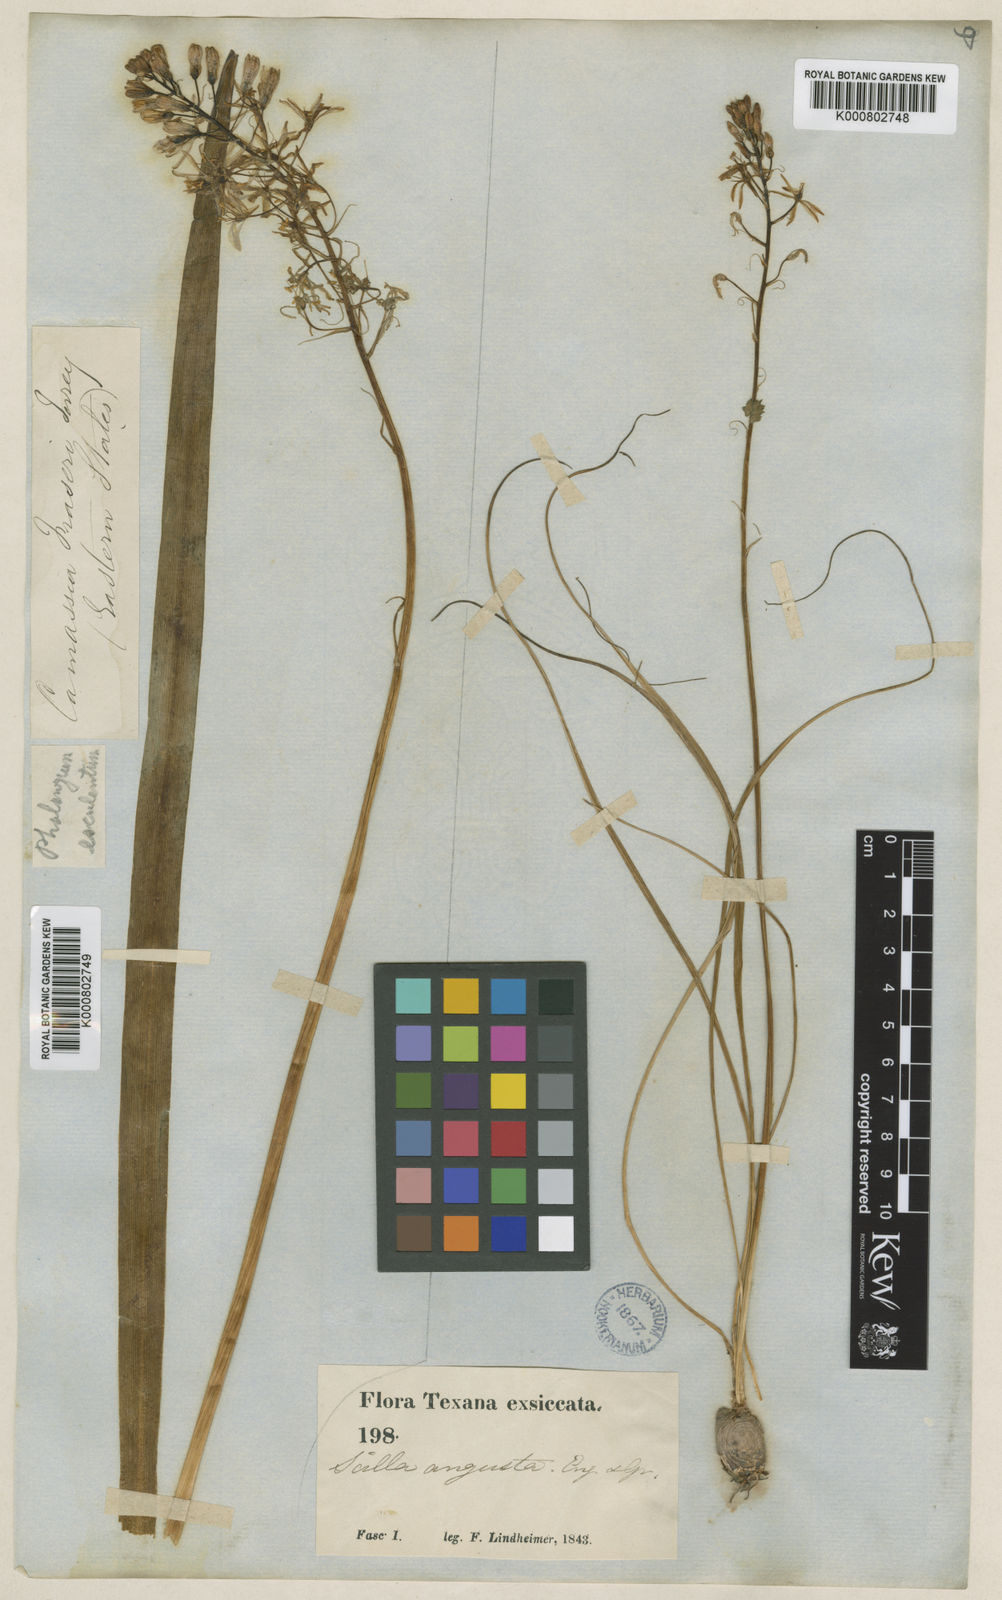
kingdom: Plantae
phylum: Tracheophyta
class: Liliopsida
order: Asparagales
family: Asparagaceae
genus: Camassia
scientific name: Camassia
